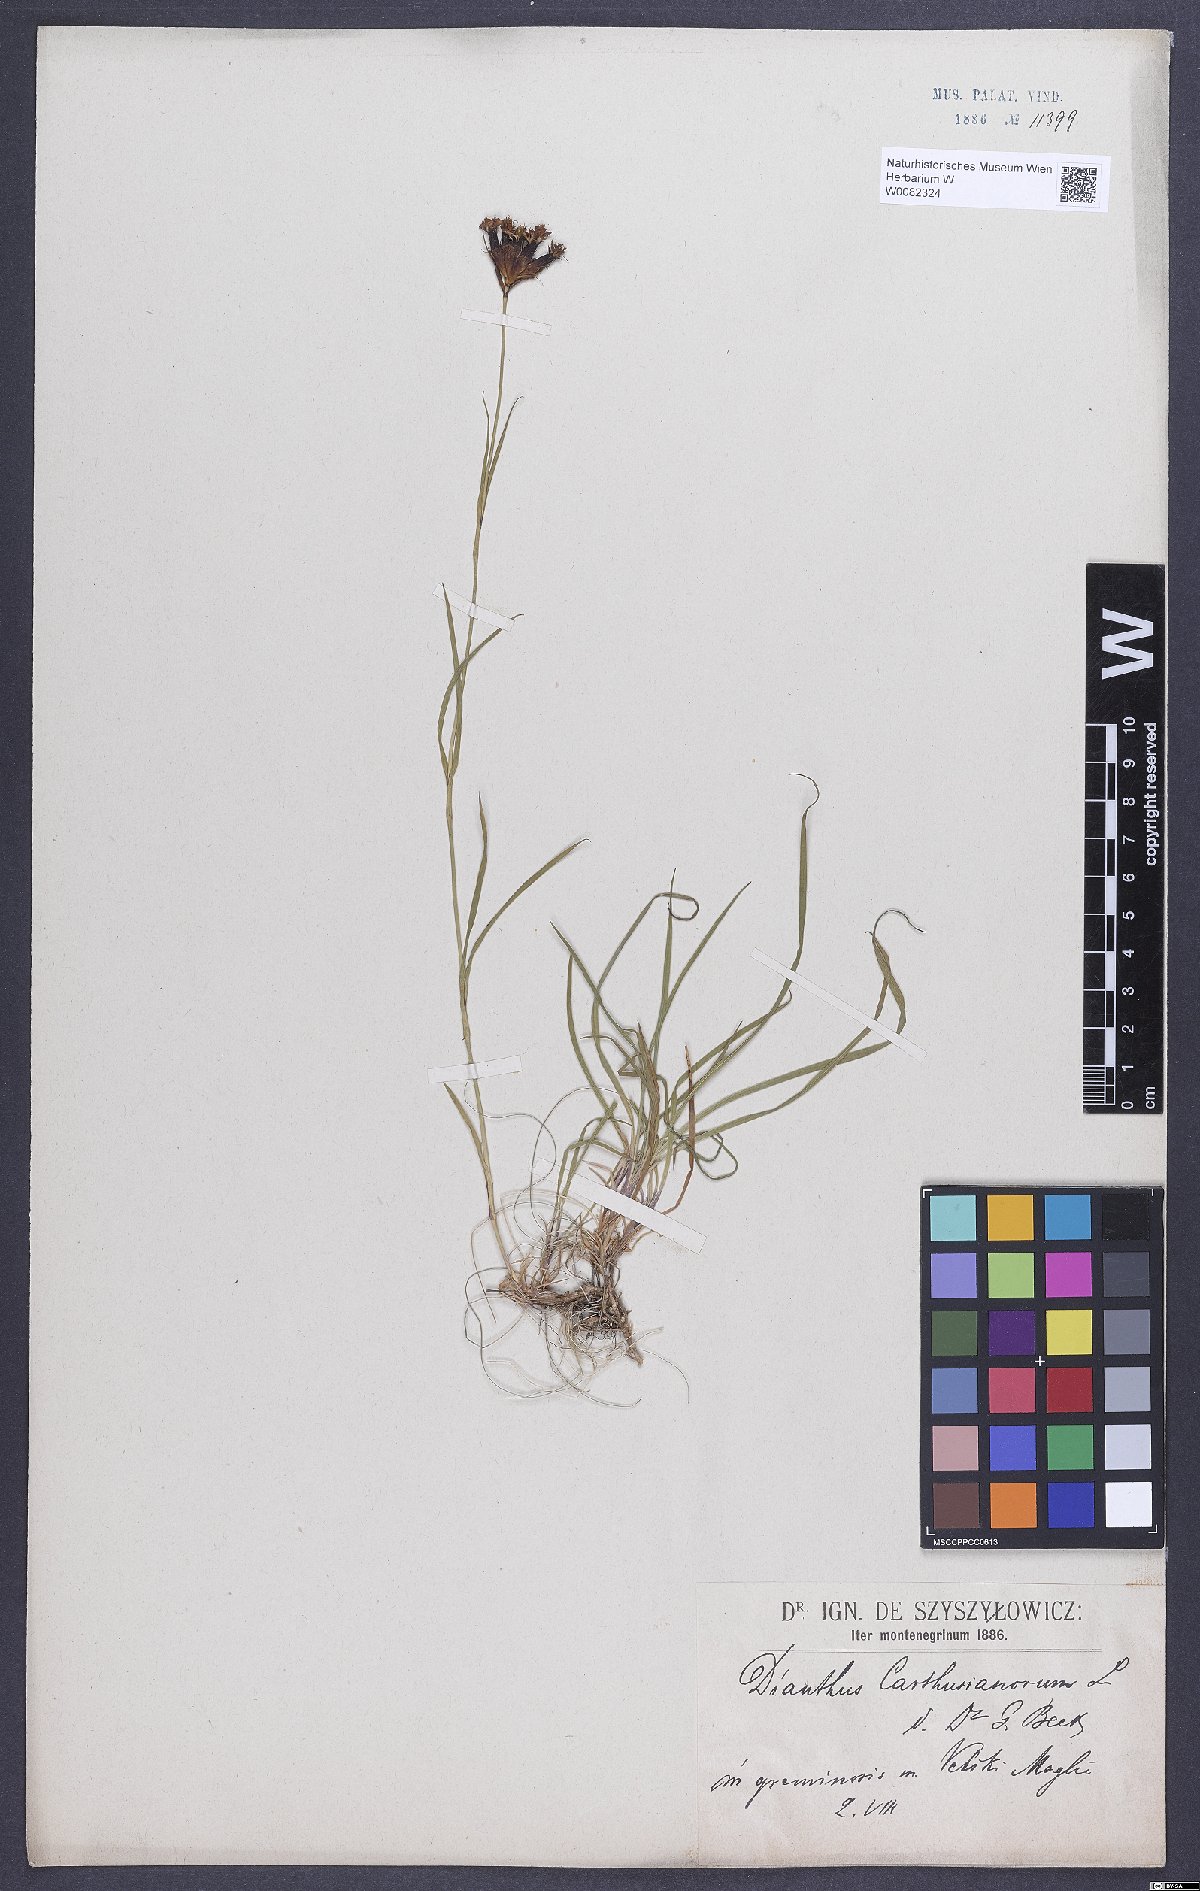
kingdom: Plantae
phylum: Tracheophyta
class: Magnoliopsida
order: Caryophyllales
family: Caryophyllaceae
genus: Dianthus
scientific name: Dianthus carthusianorum
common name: Carthusian pink
